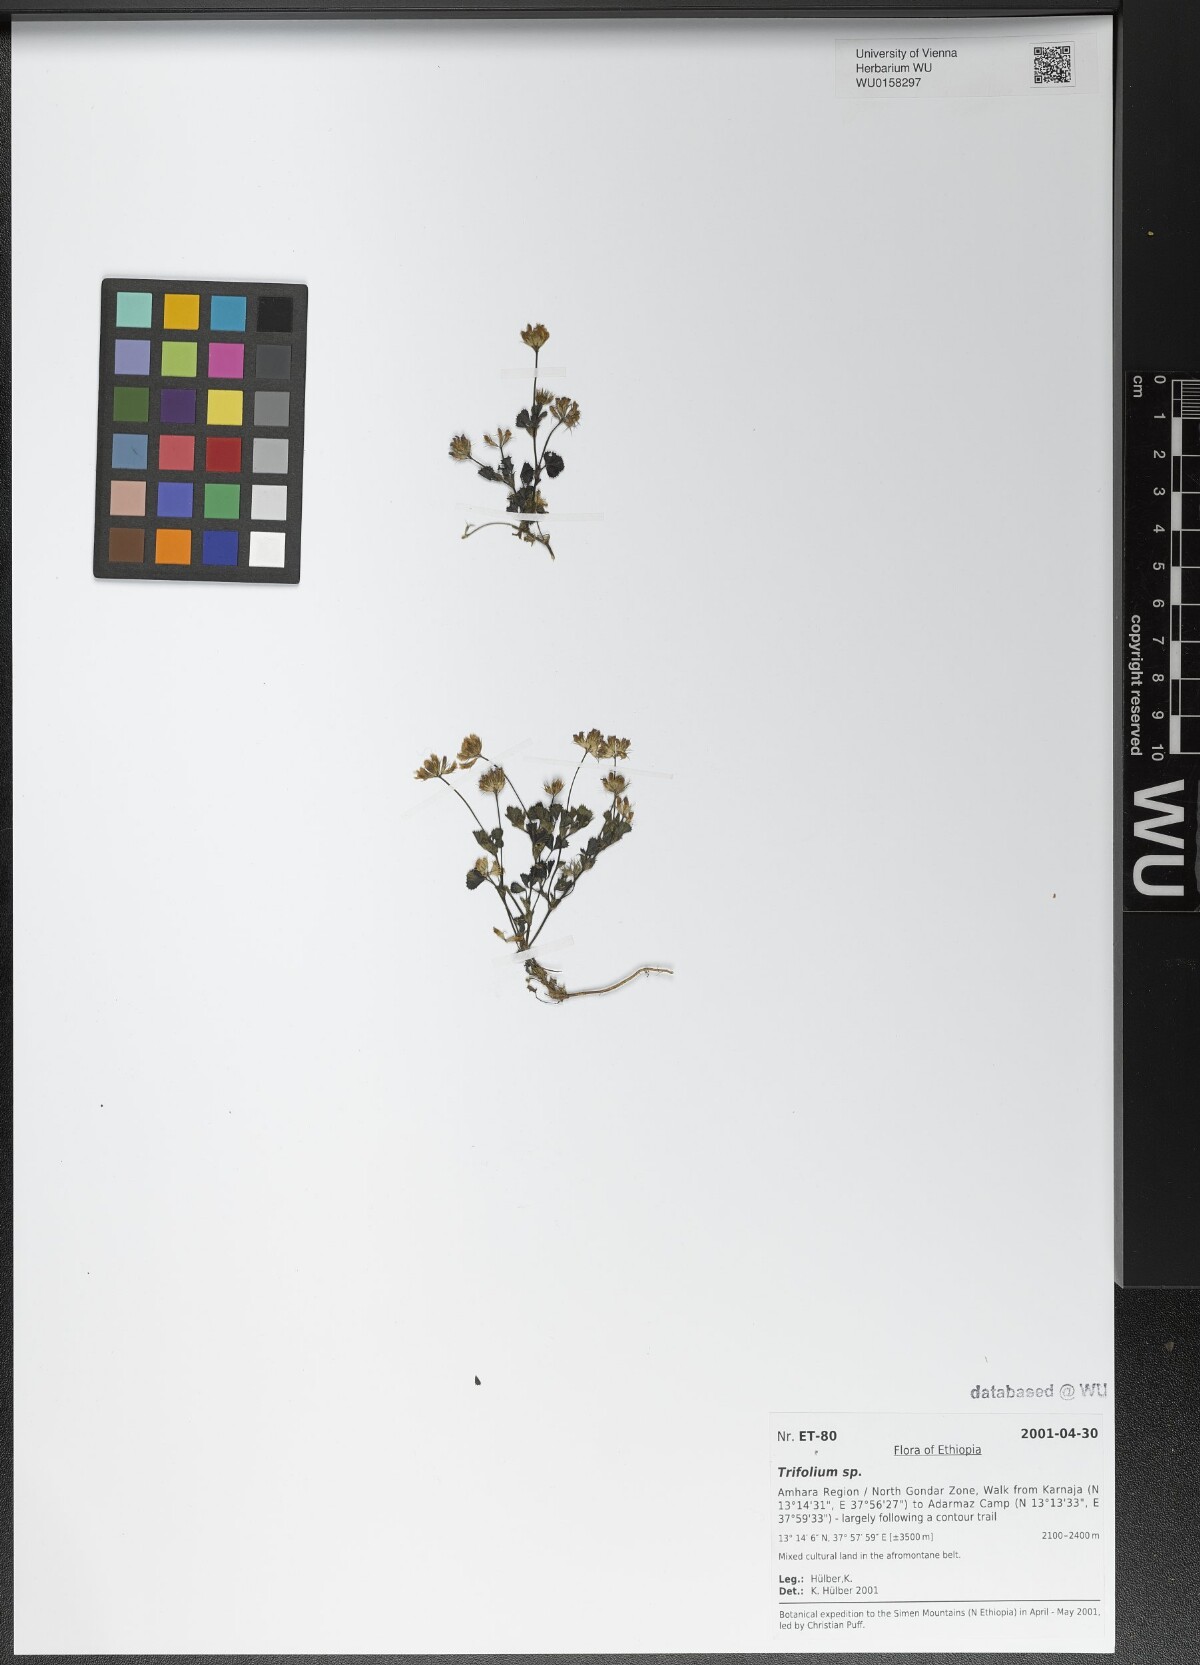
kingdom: Plantae
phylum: Tracheophyta
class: Magnoliopsida
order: Fabales
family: Fabaceae
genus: Trifolium
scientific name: Trifolium
